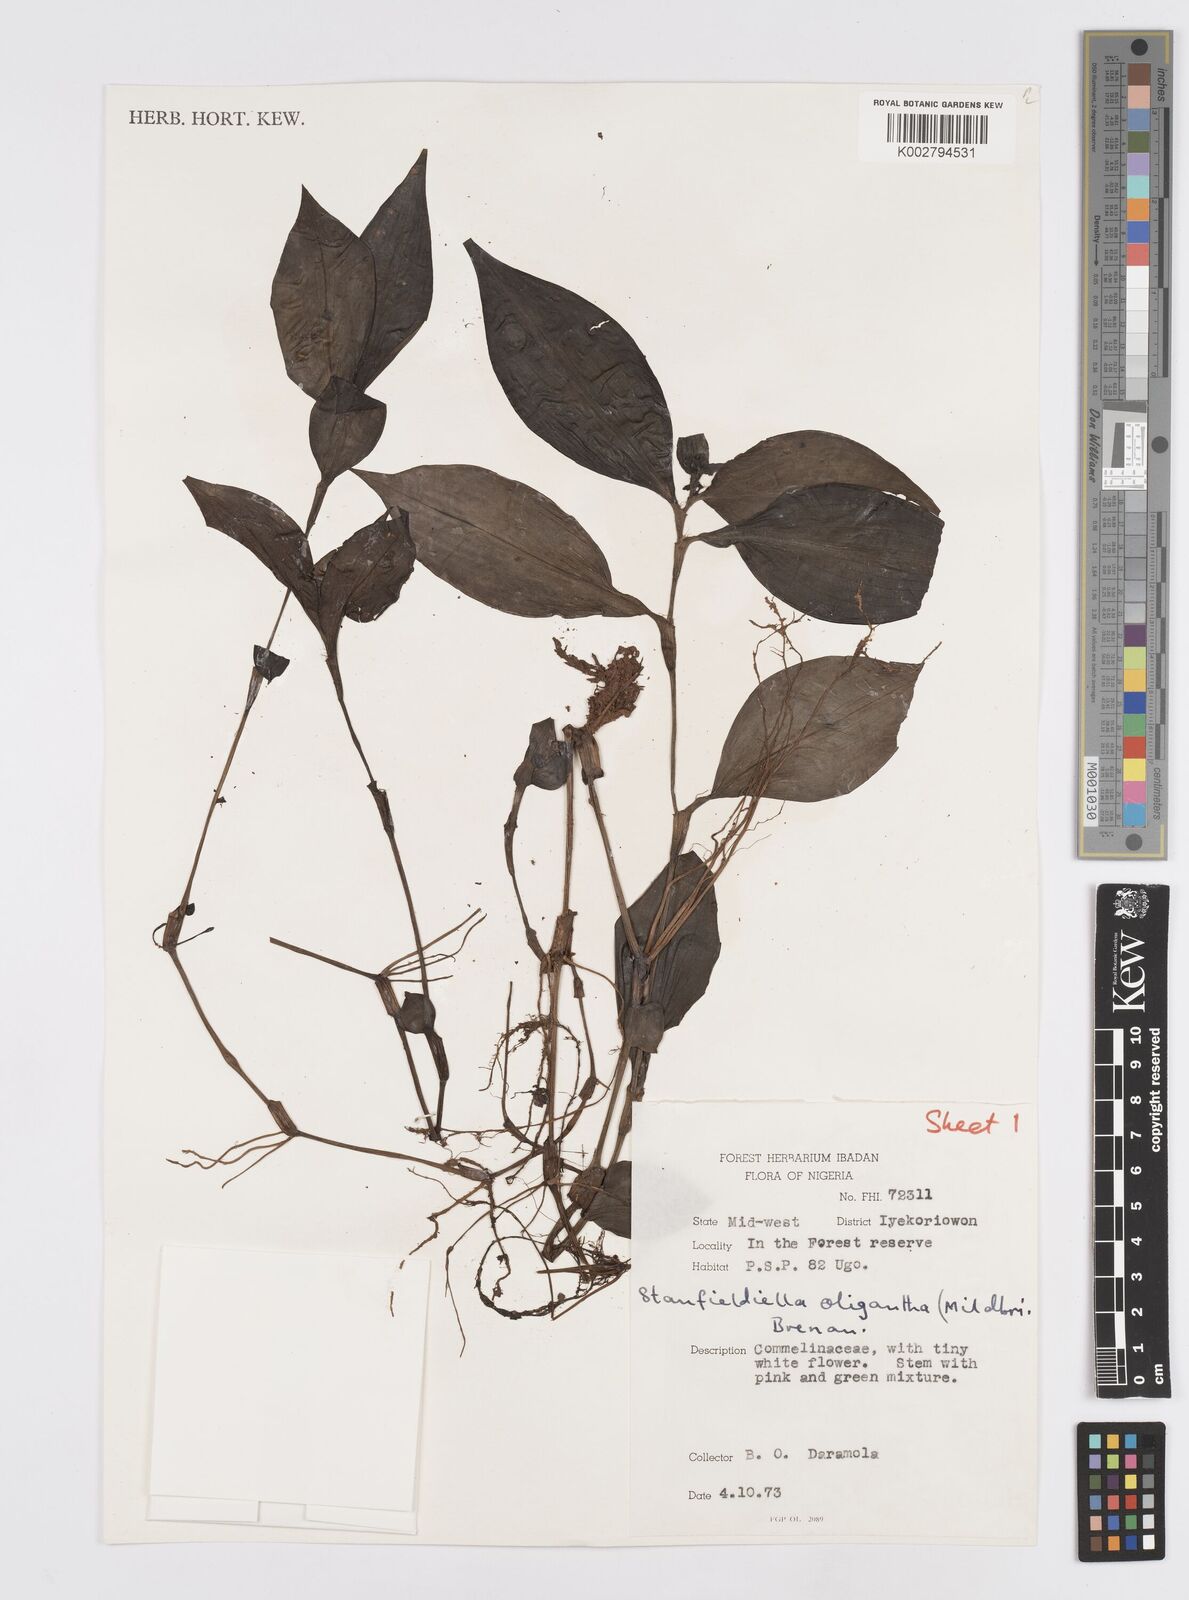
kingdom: Plantae
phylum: Tracheophyta
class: Liliopsida
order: Commelinales
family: Commelinaceae
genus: Stanfieldiella
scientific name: Stanfieldiella oligantha
